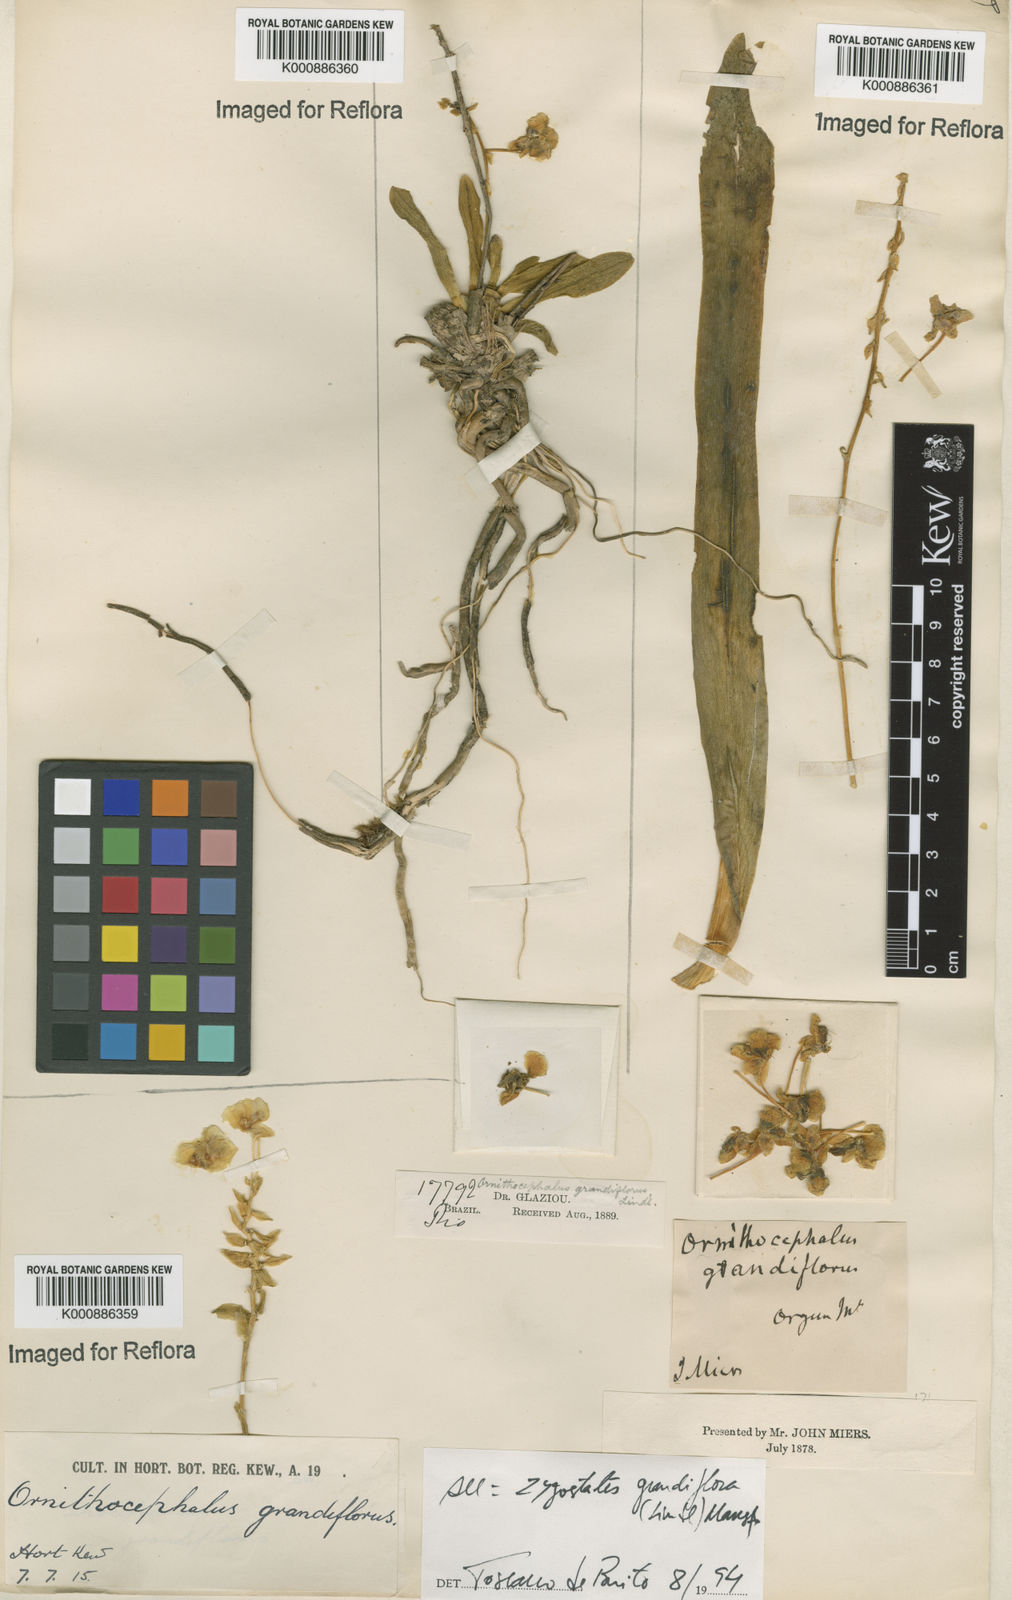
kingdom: Plantae
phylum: Tracheophyta
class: Liliopsida
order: Asparagales
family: Orchidaceae
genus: Zygostates
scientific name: Zygostates grandiflora
